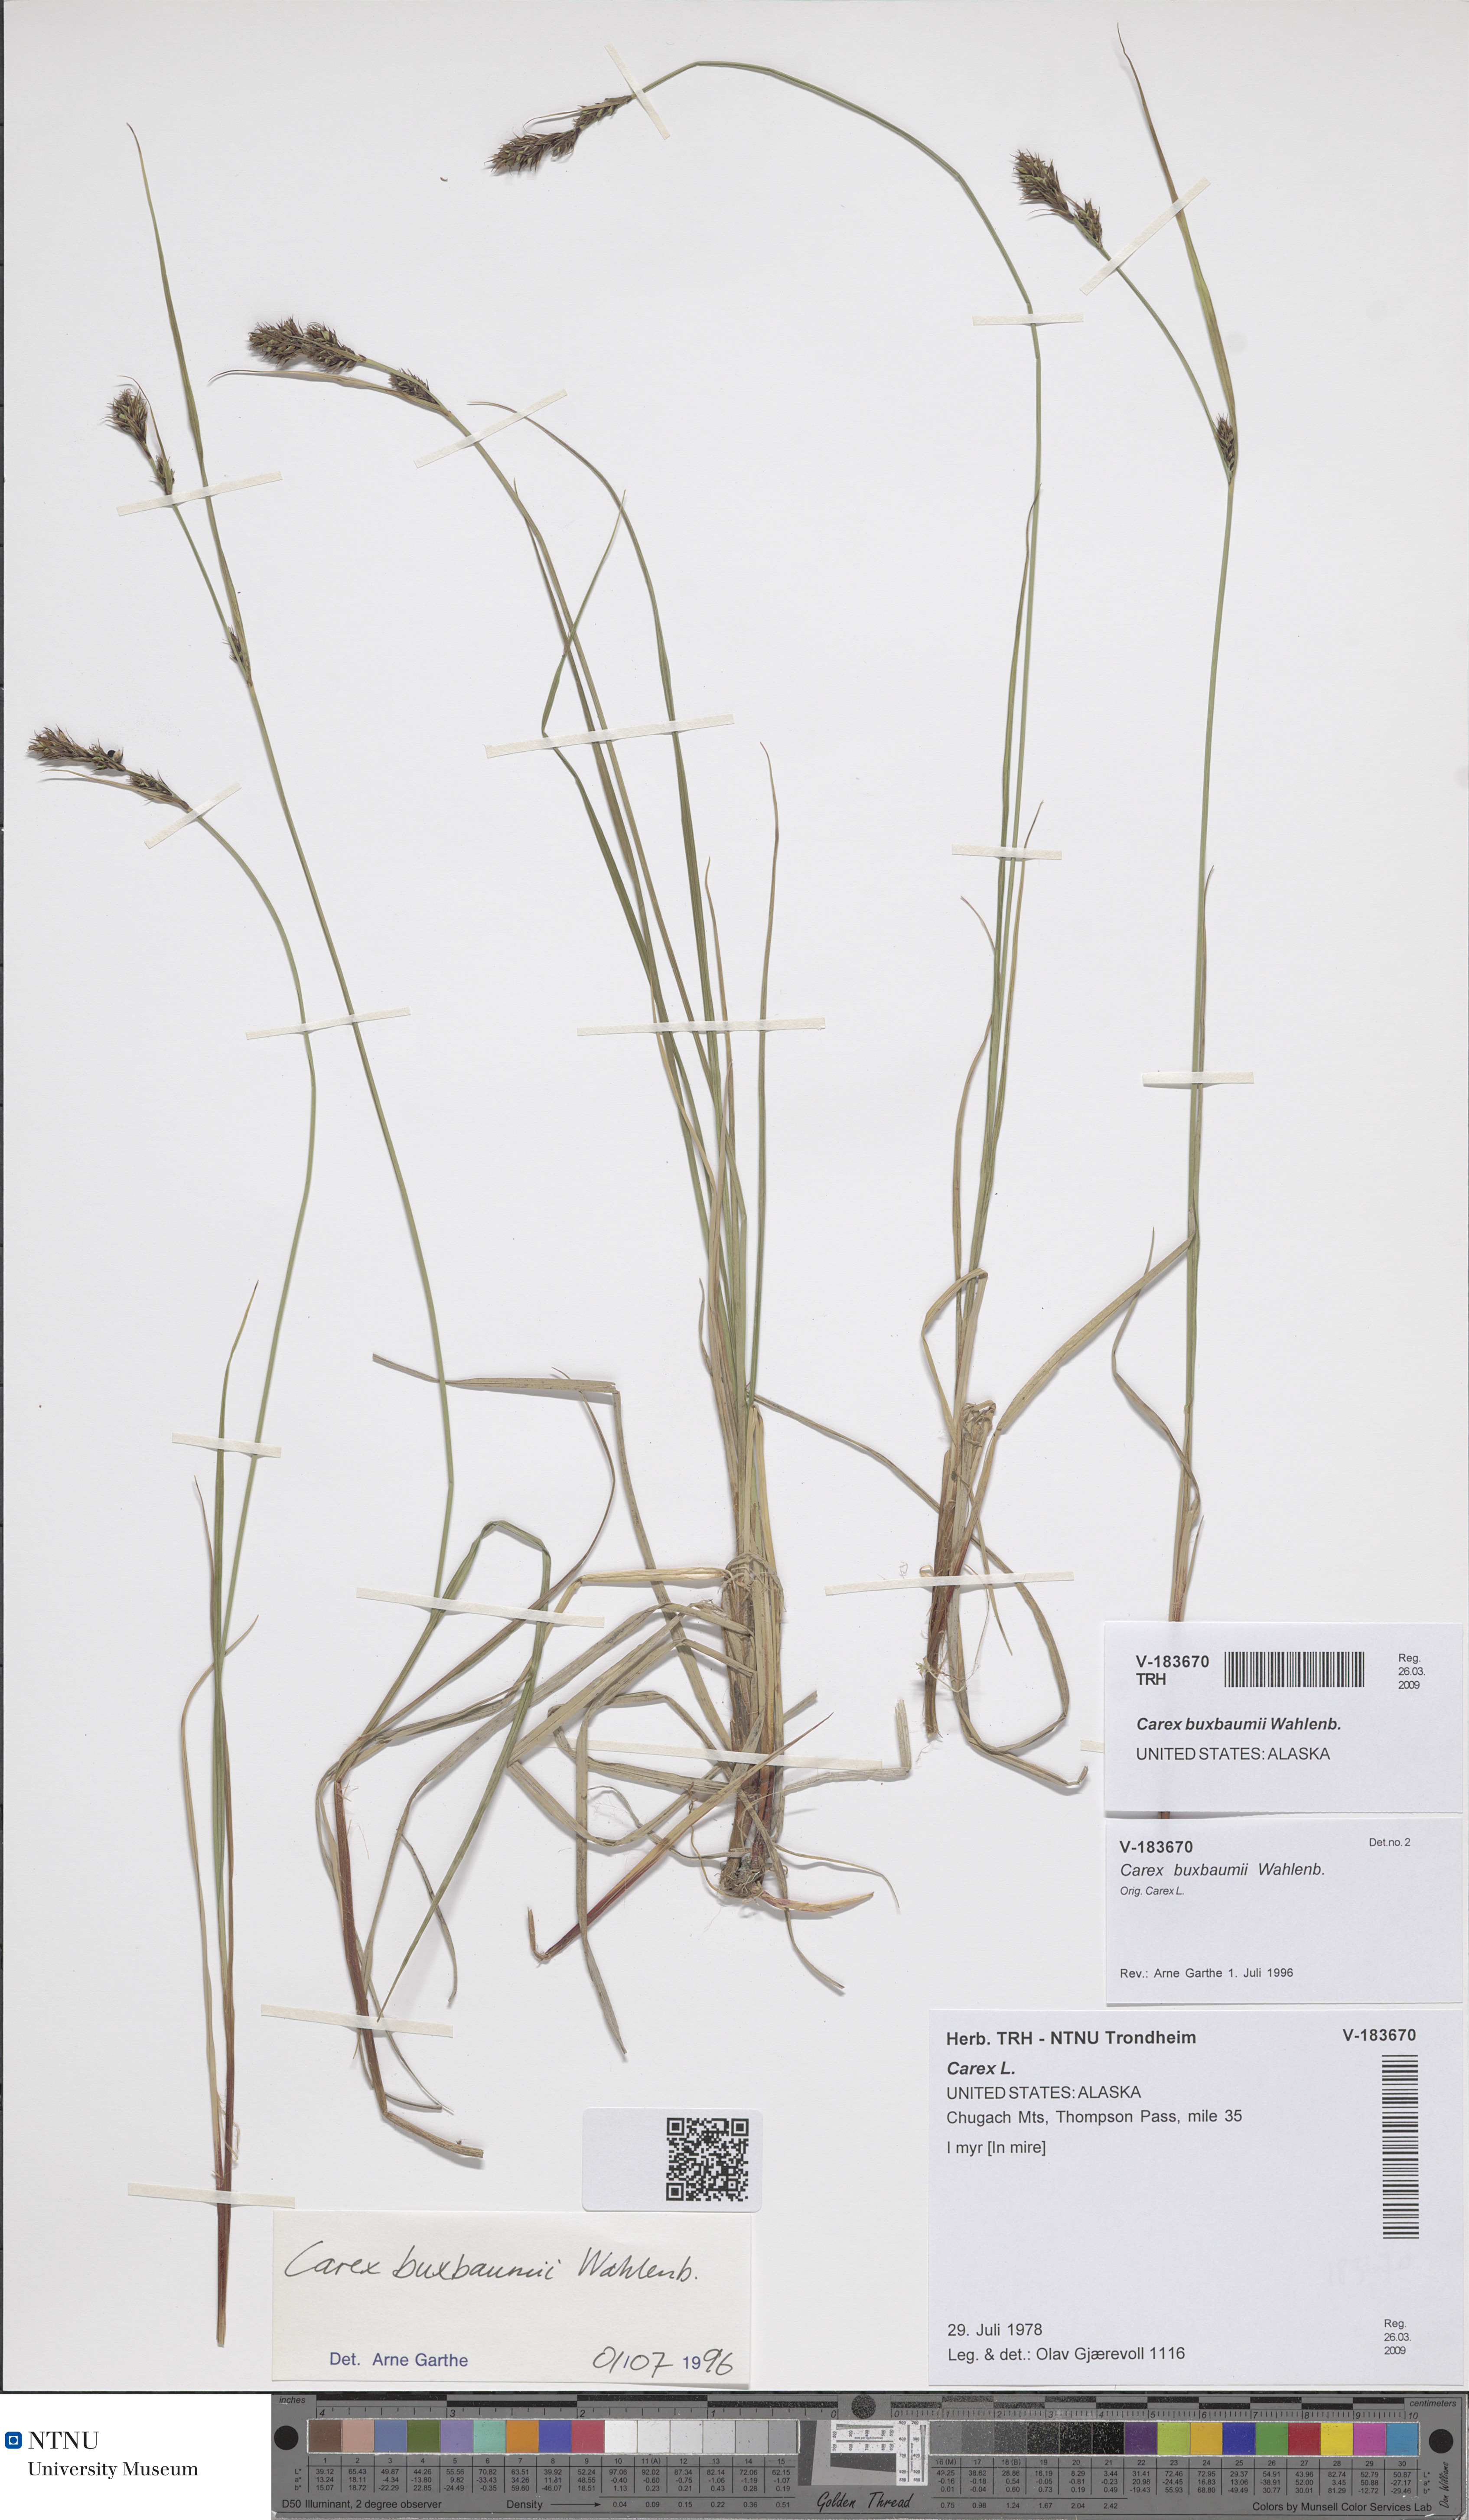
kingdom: Plantae
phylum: Tracheophyta
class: Liliopsida
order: Poales
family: Cyperaceae
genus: Carex
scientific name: Carex buxbaumii
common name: Club sedge
